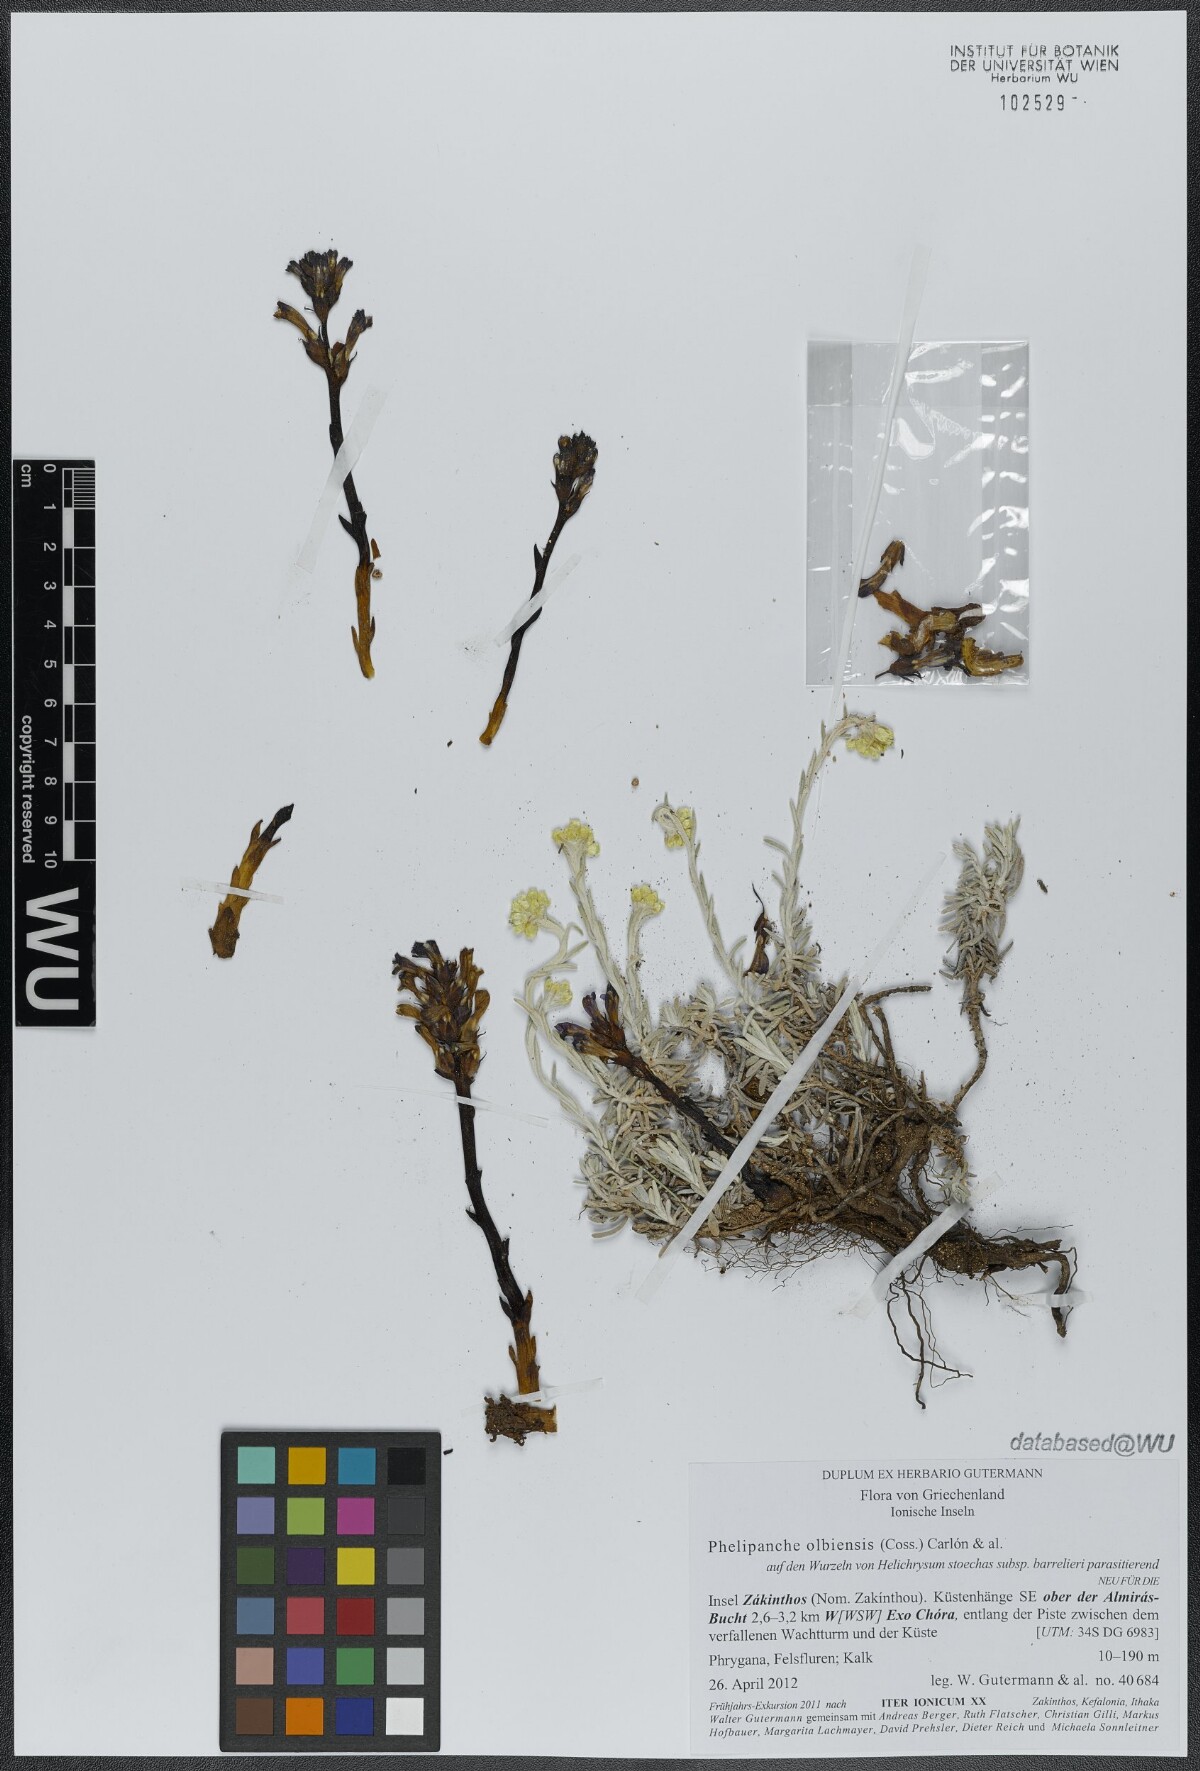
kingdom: Plantae
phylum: Tracheophyta
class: Magnoliopsida
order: Lamiales
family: Orobanchaceae
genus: Phelipanche
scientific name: Phelipanche olbiensis
